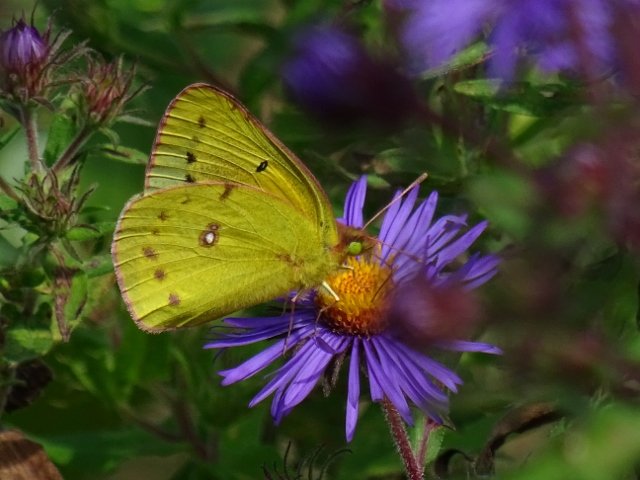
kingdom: Animalia
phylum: Arthropoda
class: Insecta
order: Lepidoptera
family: Pieridae
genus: Colias
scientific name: Colias philodice
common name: Clouded Sulphur
